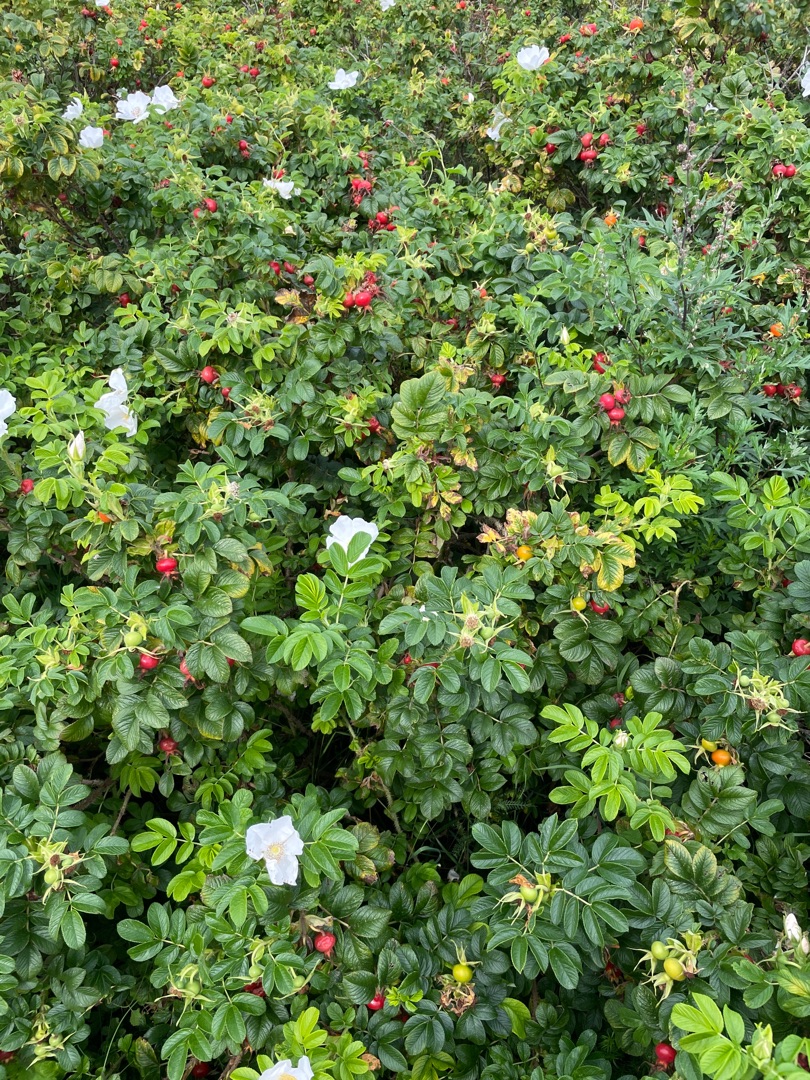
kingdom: Plantae
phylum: Tracheophyta
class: Magnoliopsida
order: Rosales
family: Rosaceae
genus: Rosa
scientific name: Rosa rugosa
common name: Rynket rose
